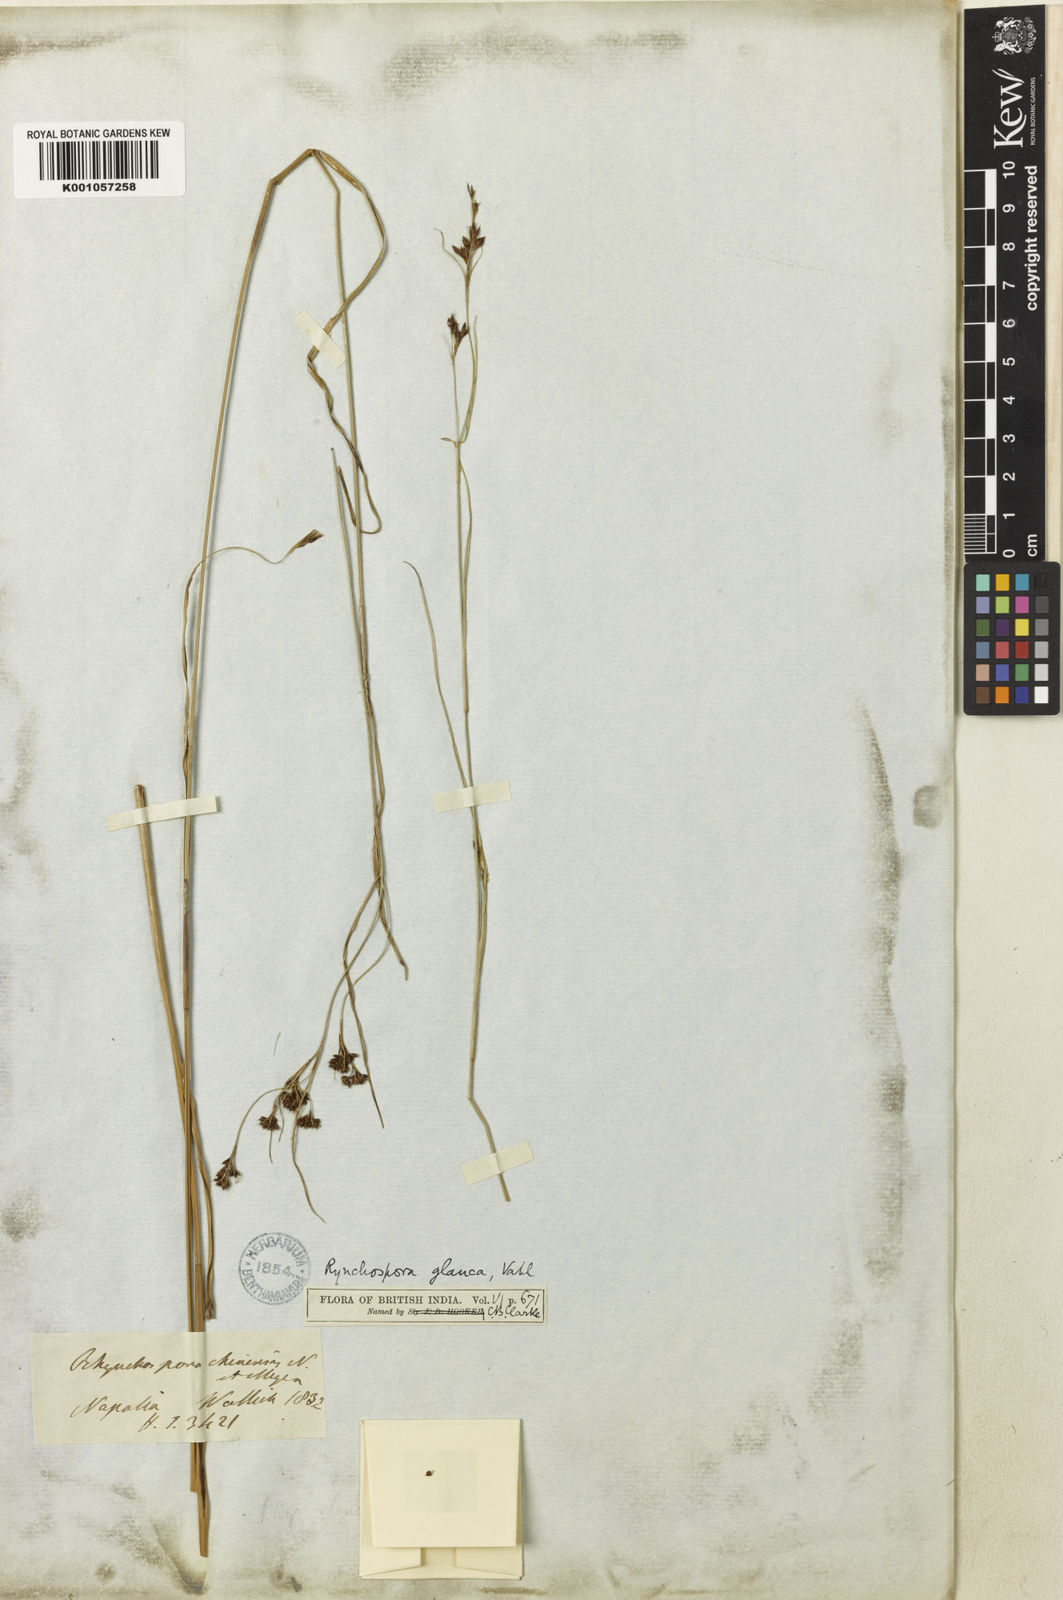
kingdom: Plantae
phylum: Tracheophyta
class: Liliopsida
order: Poales
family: Cyperaceae
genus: Rhynchospora
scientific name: Rhynchospora rugosa
